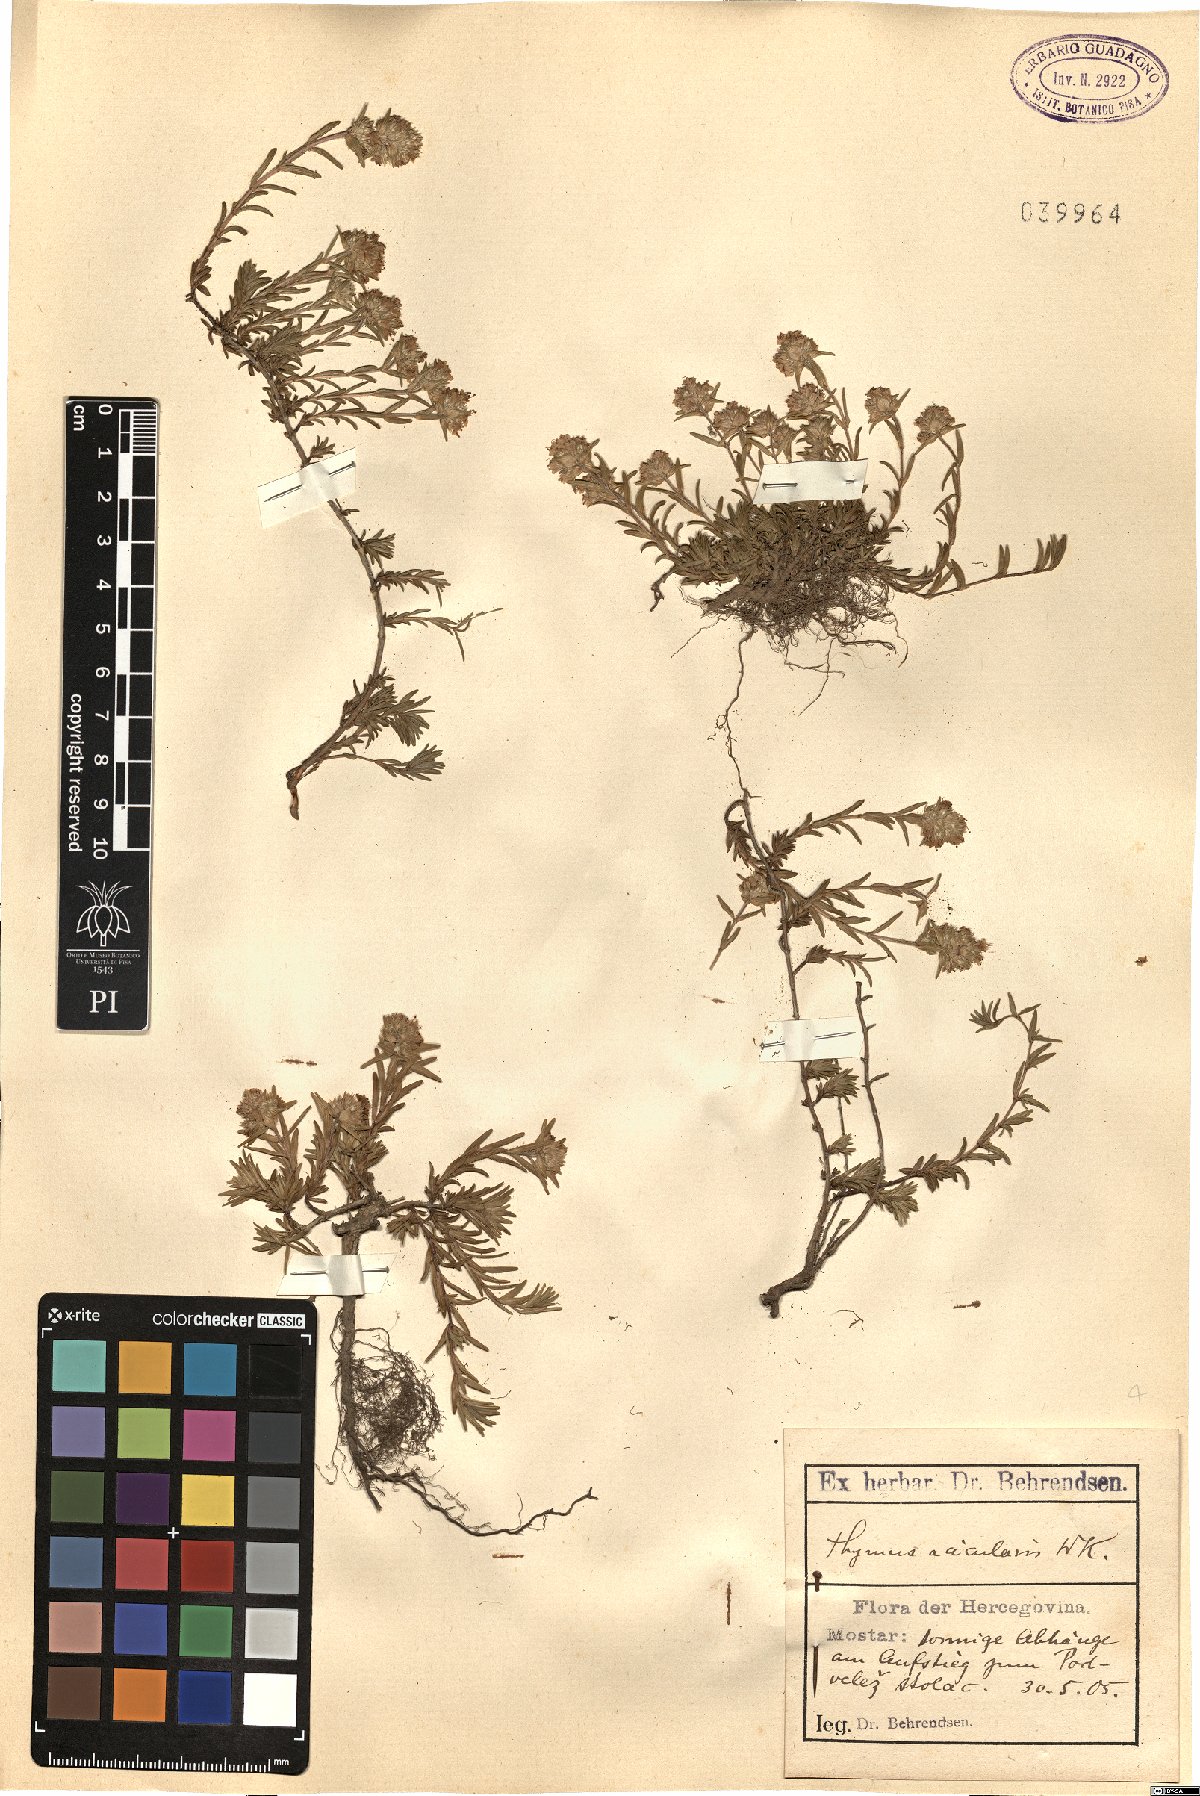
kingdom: Plantae
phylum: Tracheophyta
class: Magnoliopsida
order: Lamiales
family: Lamiaceae
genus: Thymus
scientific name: Thymus striatus
